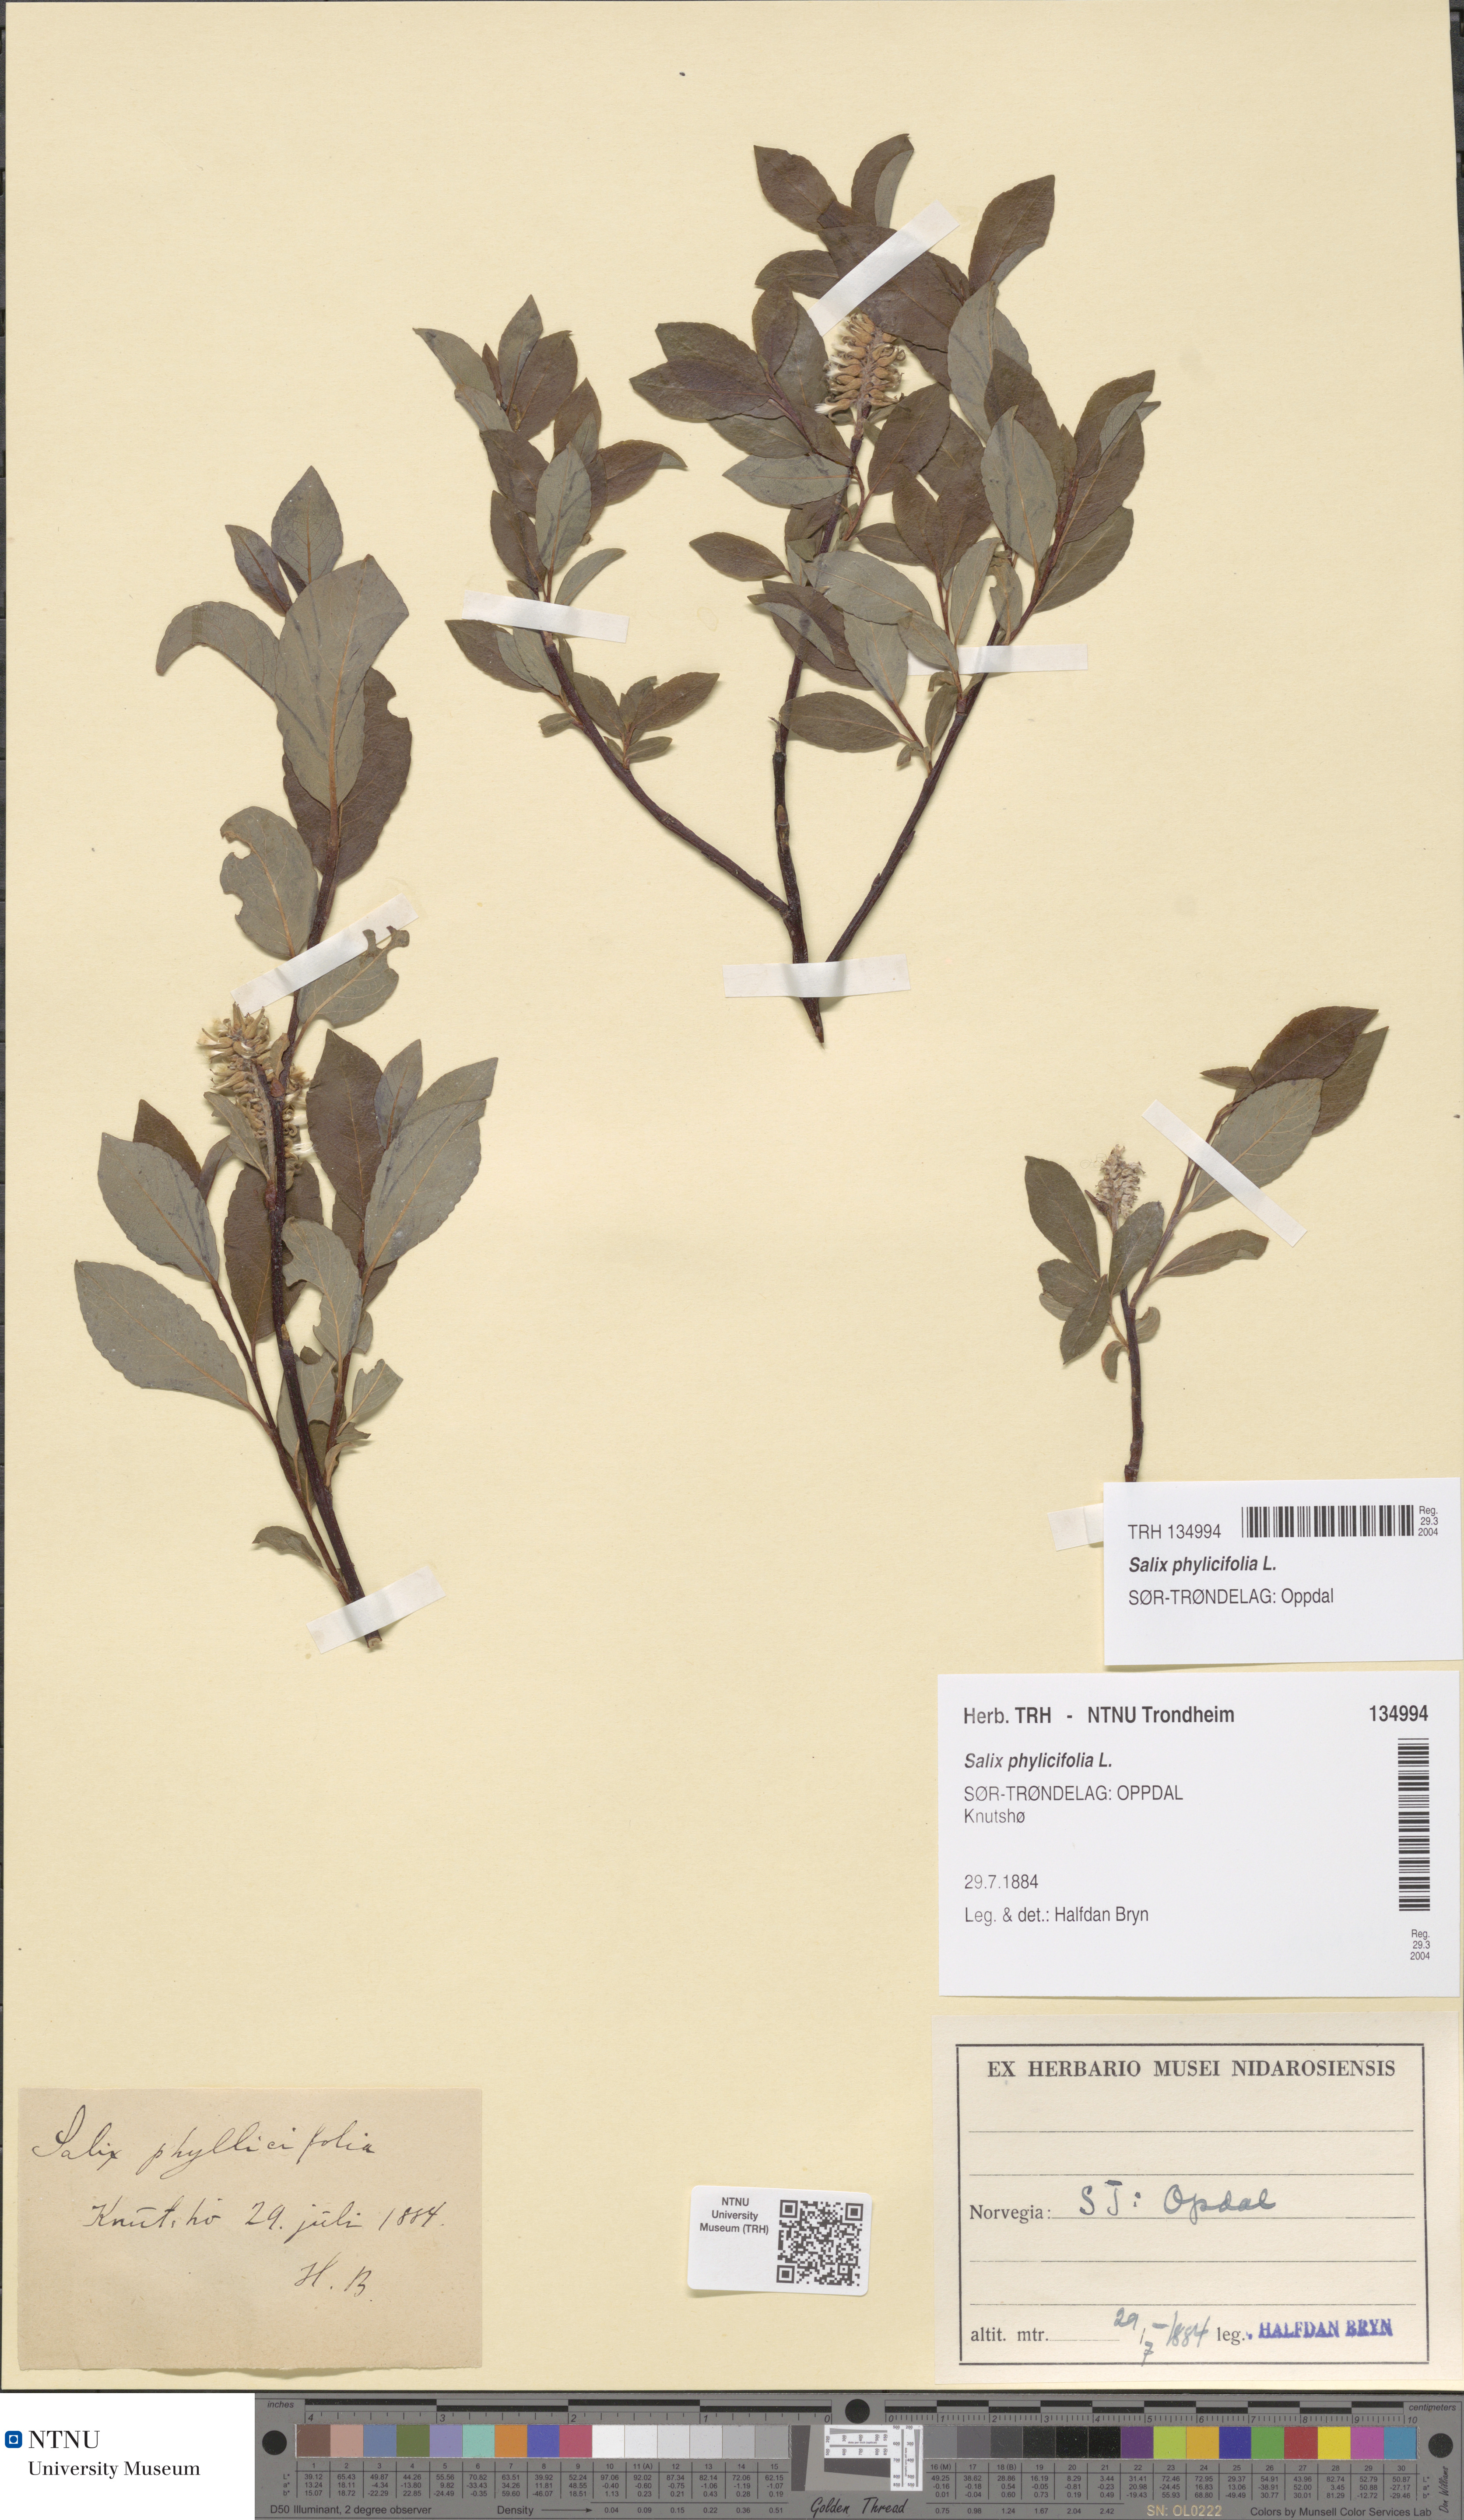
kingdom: Plantae
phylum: Tracheophyta
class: Magnoliopsida
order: Malpighiales
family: Salicaceae
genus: Salix
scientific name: Salix phylicifolia
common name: Tea-leaved willow
